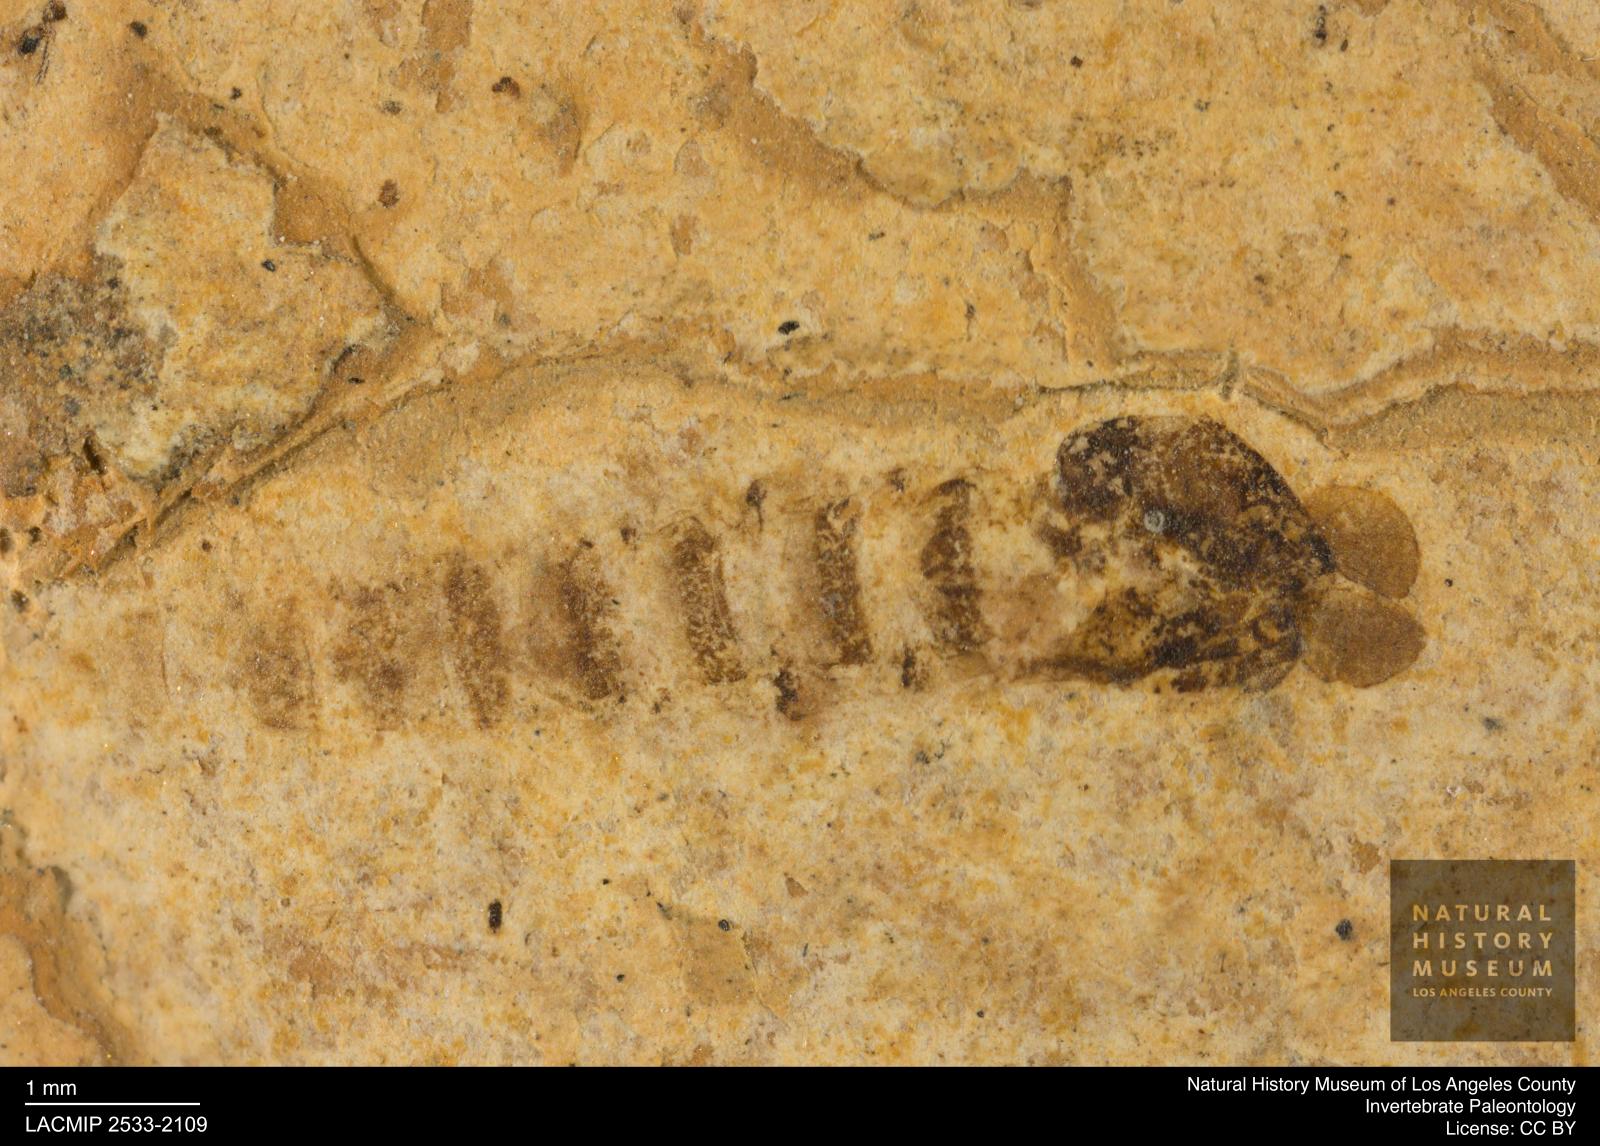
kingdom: Animalia
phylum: Arthropoda
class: Insecta
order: Diptera
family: Chironomidae
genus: Pelopiina
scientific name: Pelopiina
